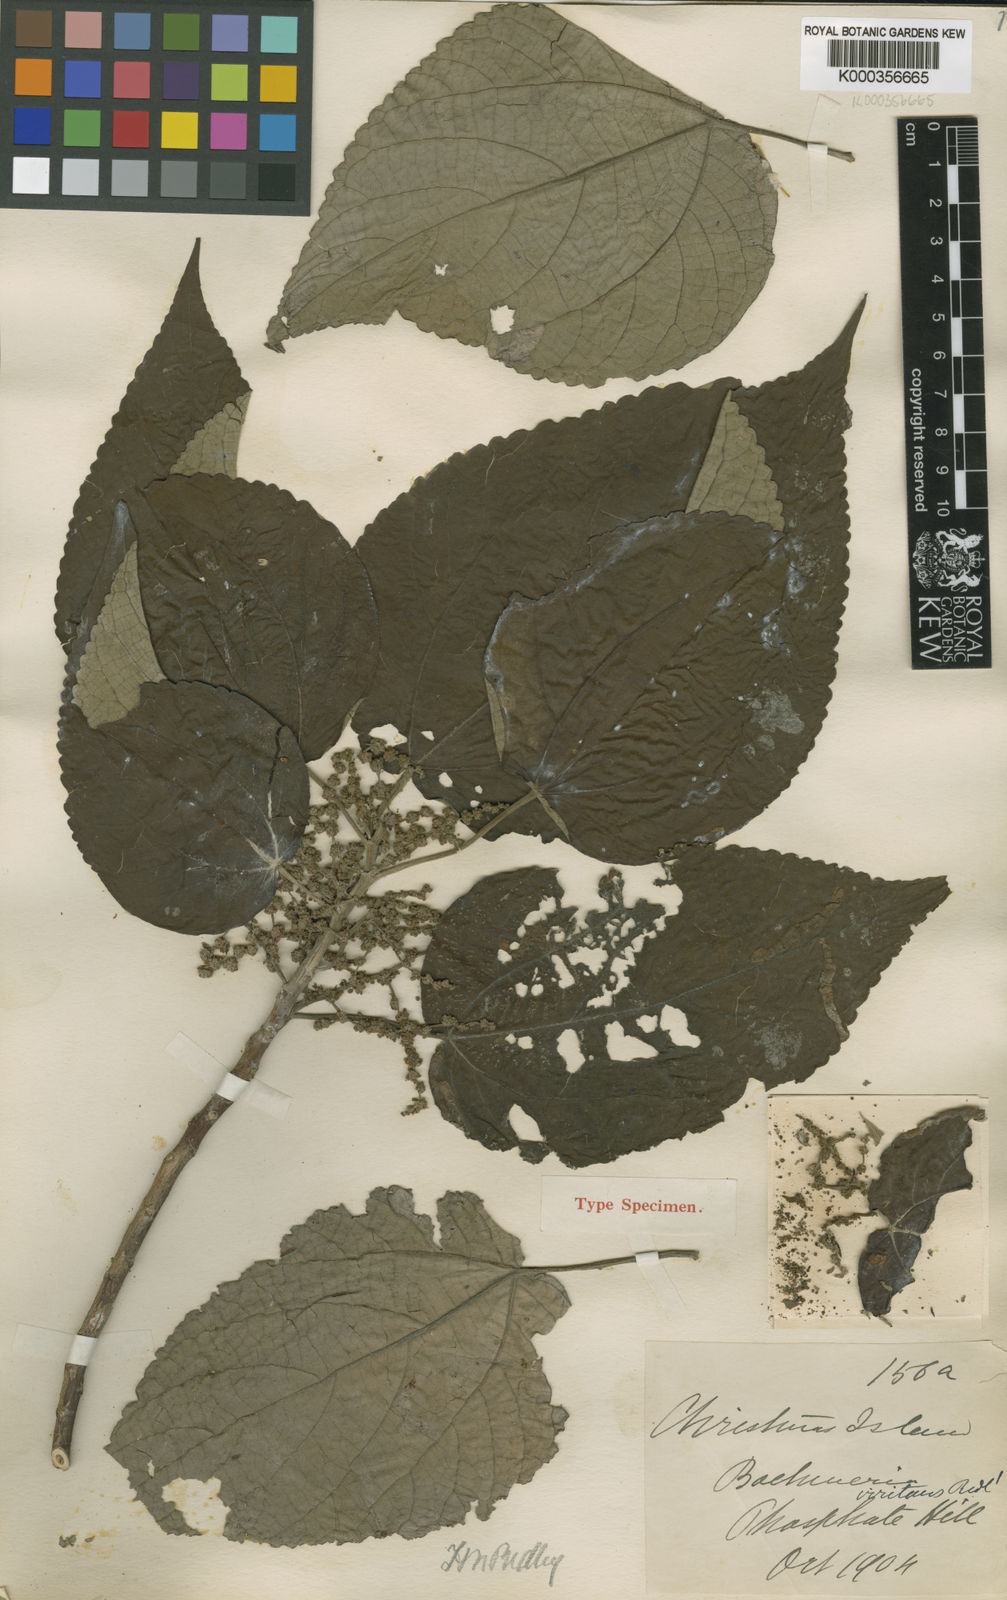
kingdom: Plantae
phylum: Tracheophyta
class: Magnoliopsida
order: Rosales
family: Urticaceae
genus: Pipturus
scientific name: Pipturus argenteus
